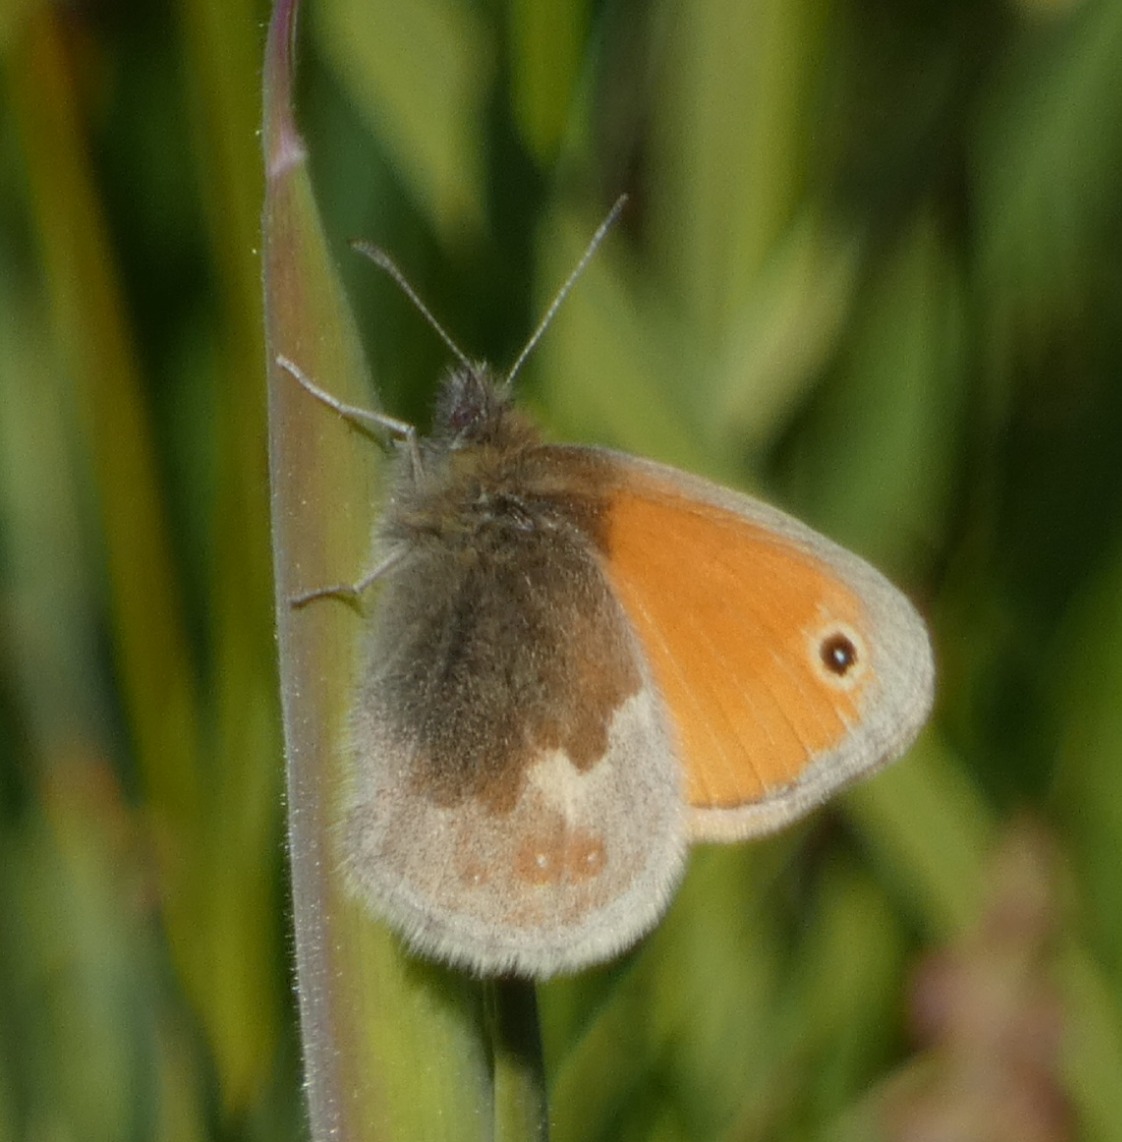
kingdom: Animalia
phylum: Arthropoda
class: Insecta
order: Lepidoptera
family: Nymphalidae
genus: Coenonympha
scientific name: Coenonympha pamphilus
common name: Okkergul randøje
